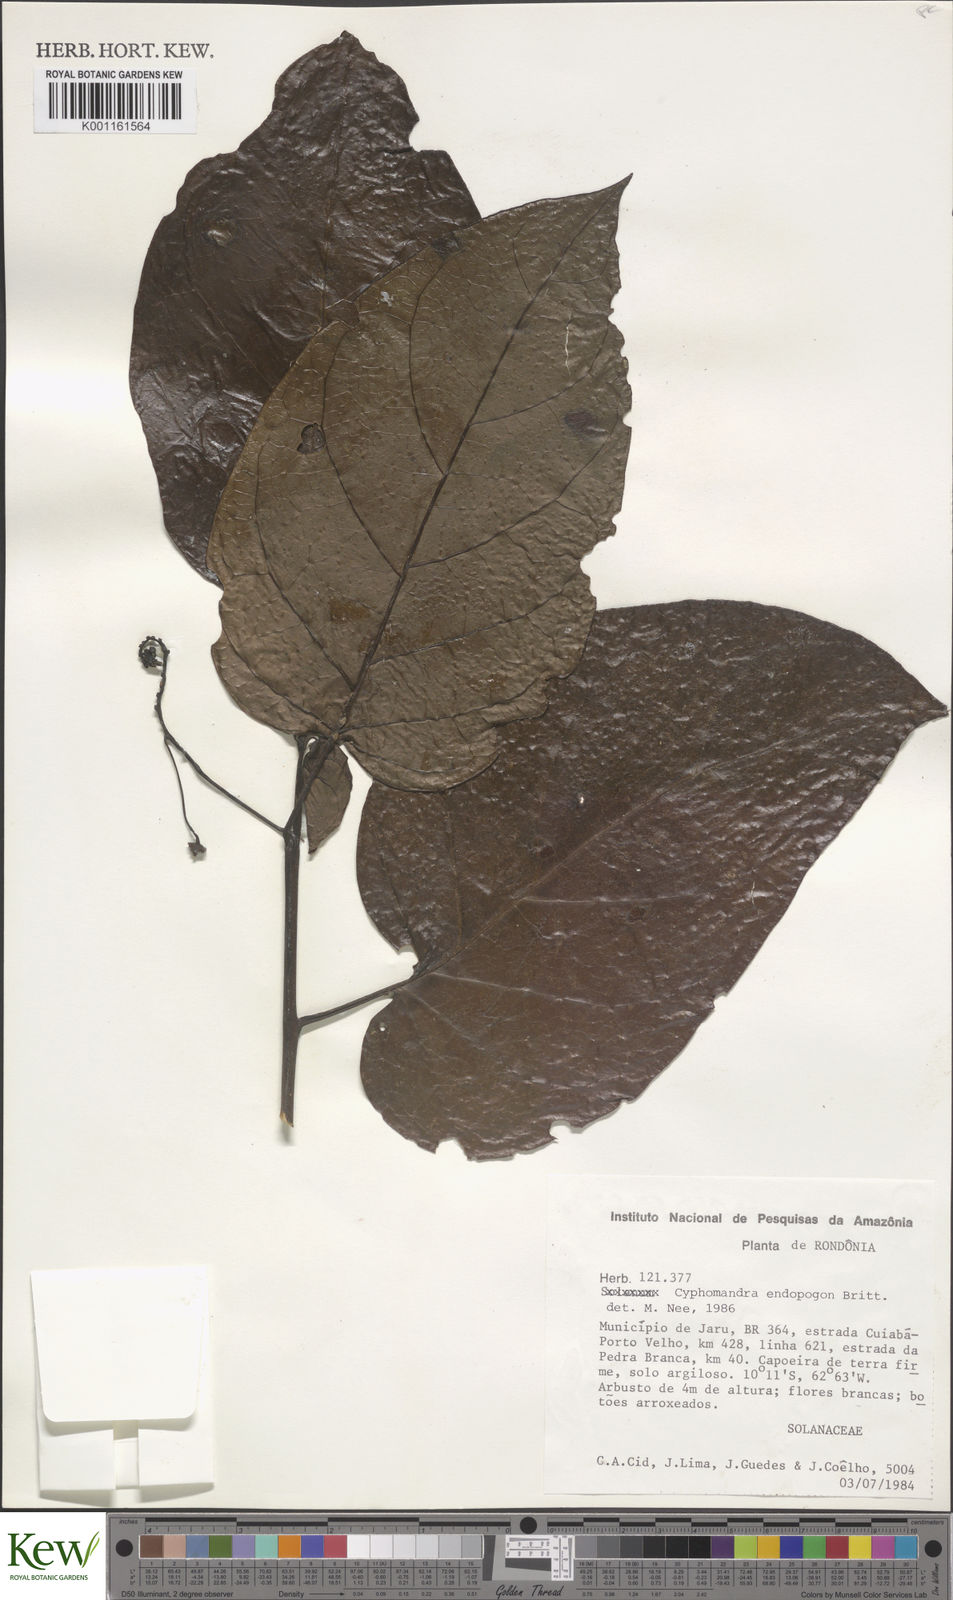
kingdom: Plantae
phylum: Tracheophyta
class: Magnoliopsida
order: Solanales
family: Solanaceae
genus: Solanum
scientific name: Solanum endopogon
